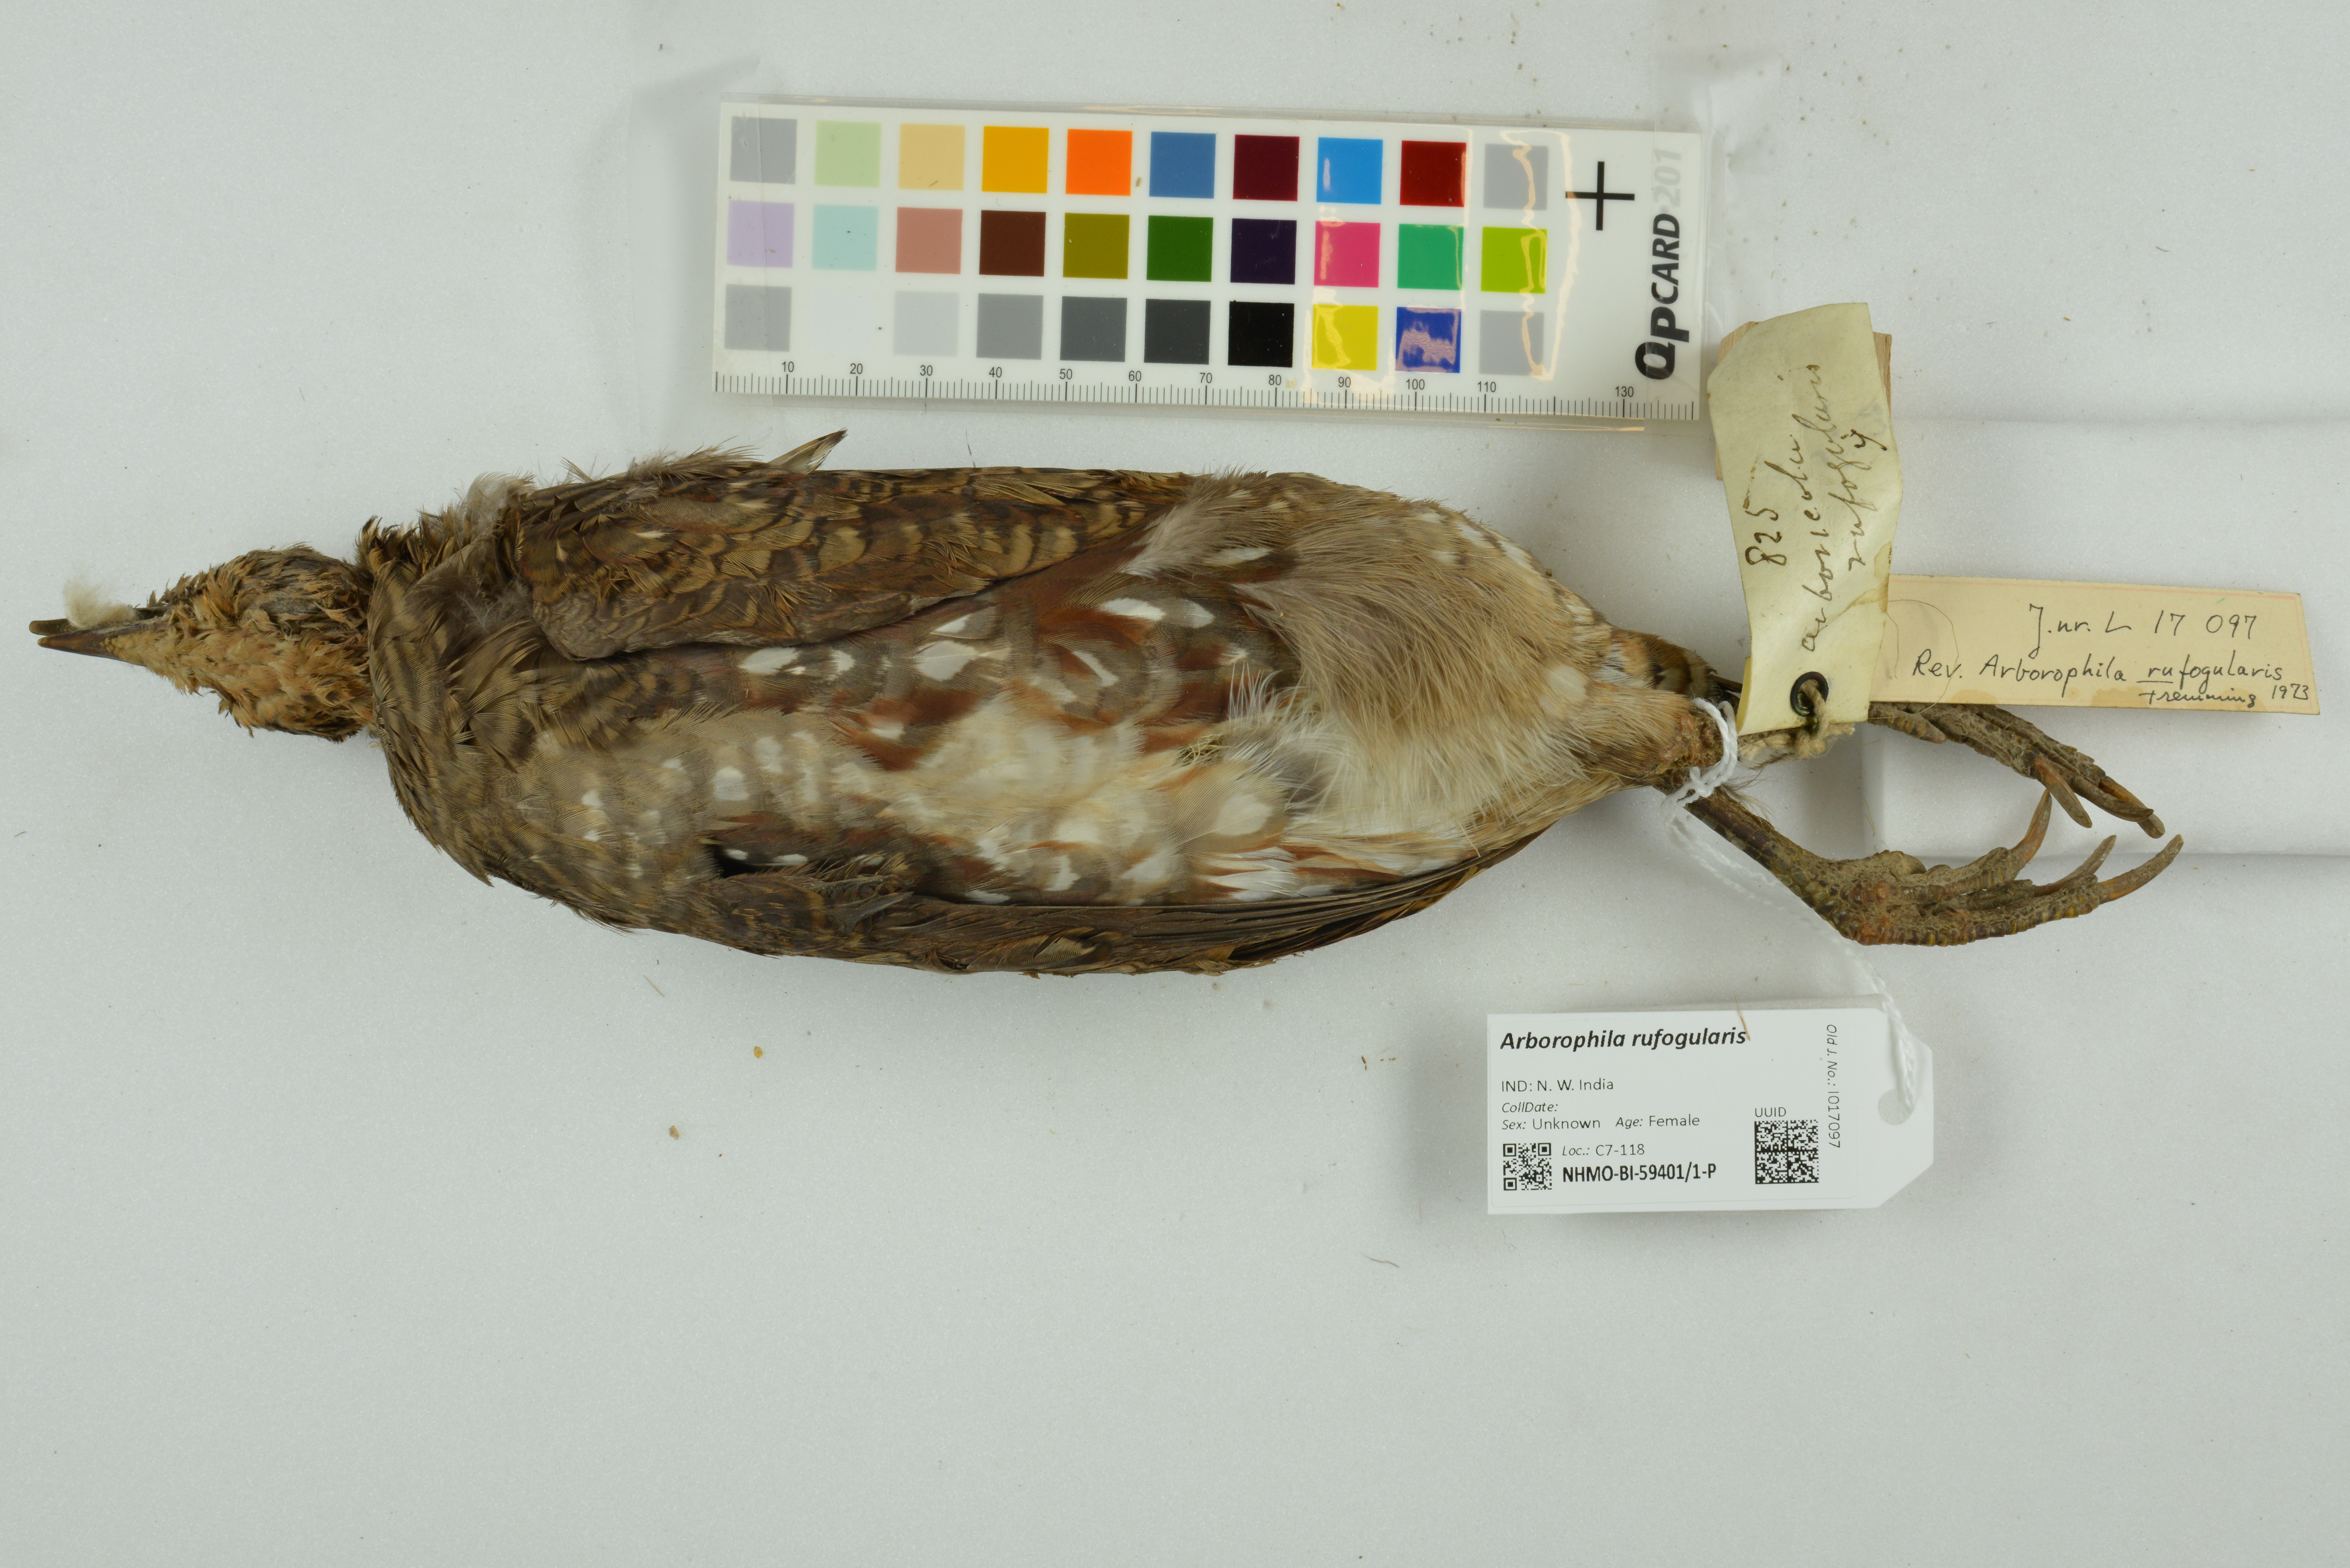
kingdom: Animalia
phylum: Chordata
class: Aves
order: Galliformes
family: Phasianidae
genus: Arborophila
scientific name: Arborophila rufogularis
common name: Rufous-throated partridge
